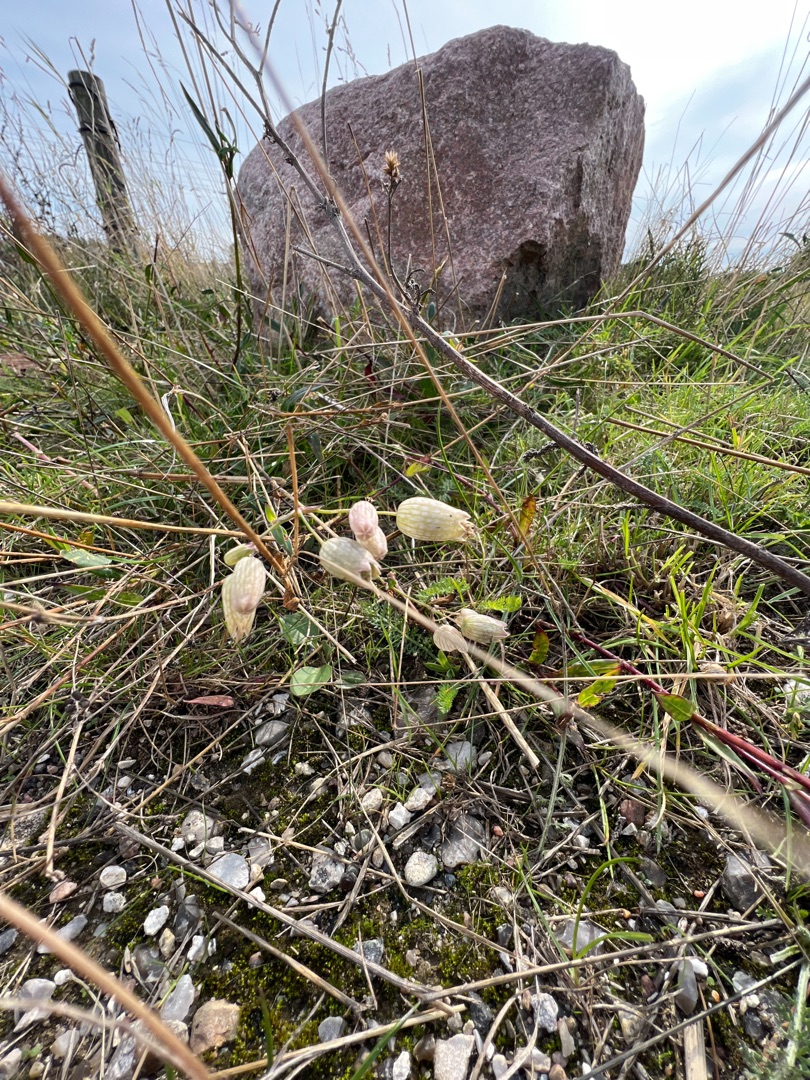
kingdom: Plantae
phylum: Tracheophyta
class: Magnoliopsida
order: Caryophyllales
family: Caryophyllaceae
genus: Silene
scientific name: Silene vulgaris
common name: Blæresmælde
